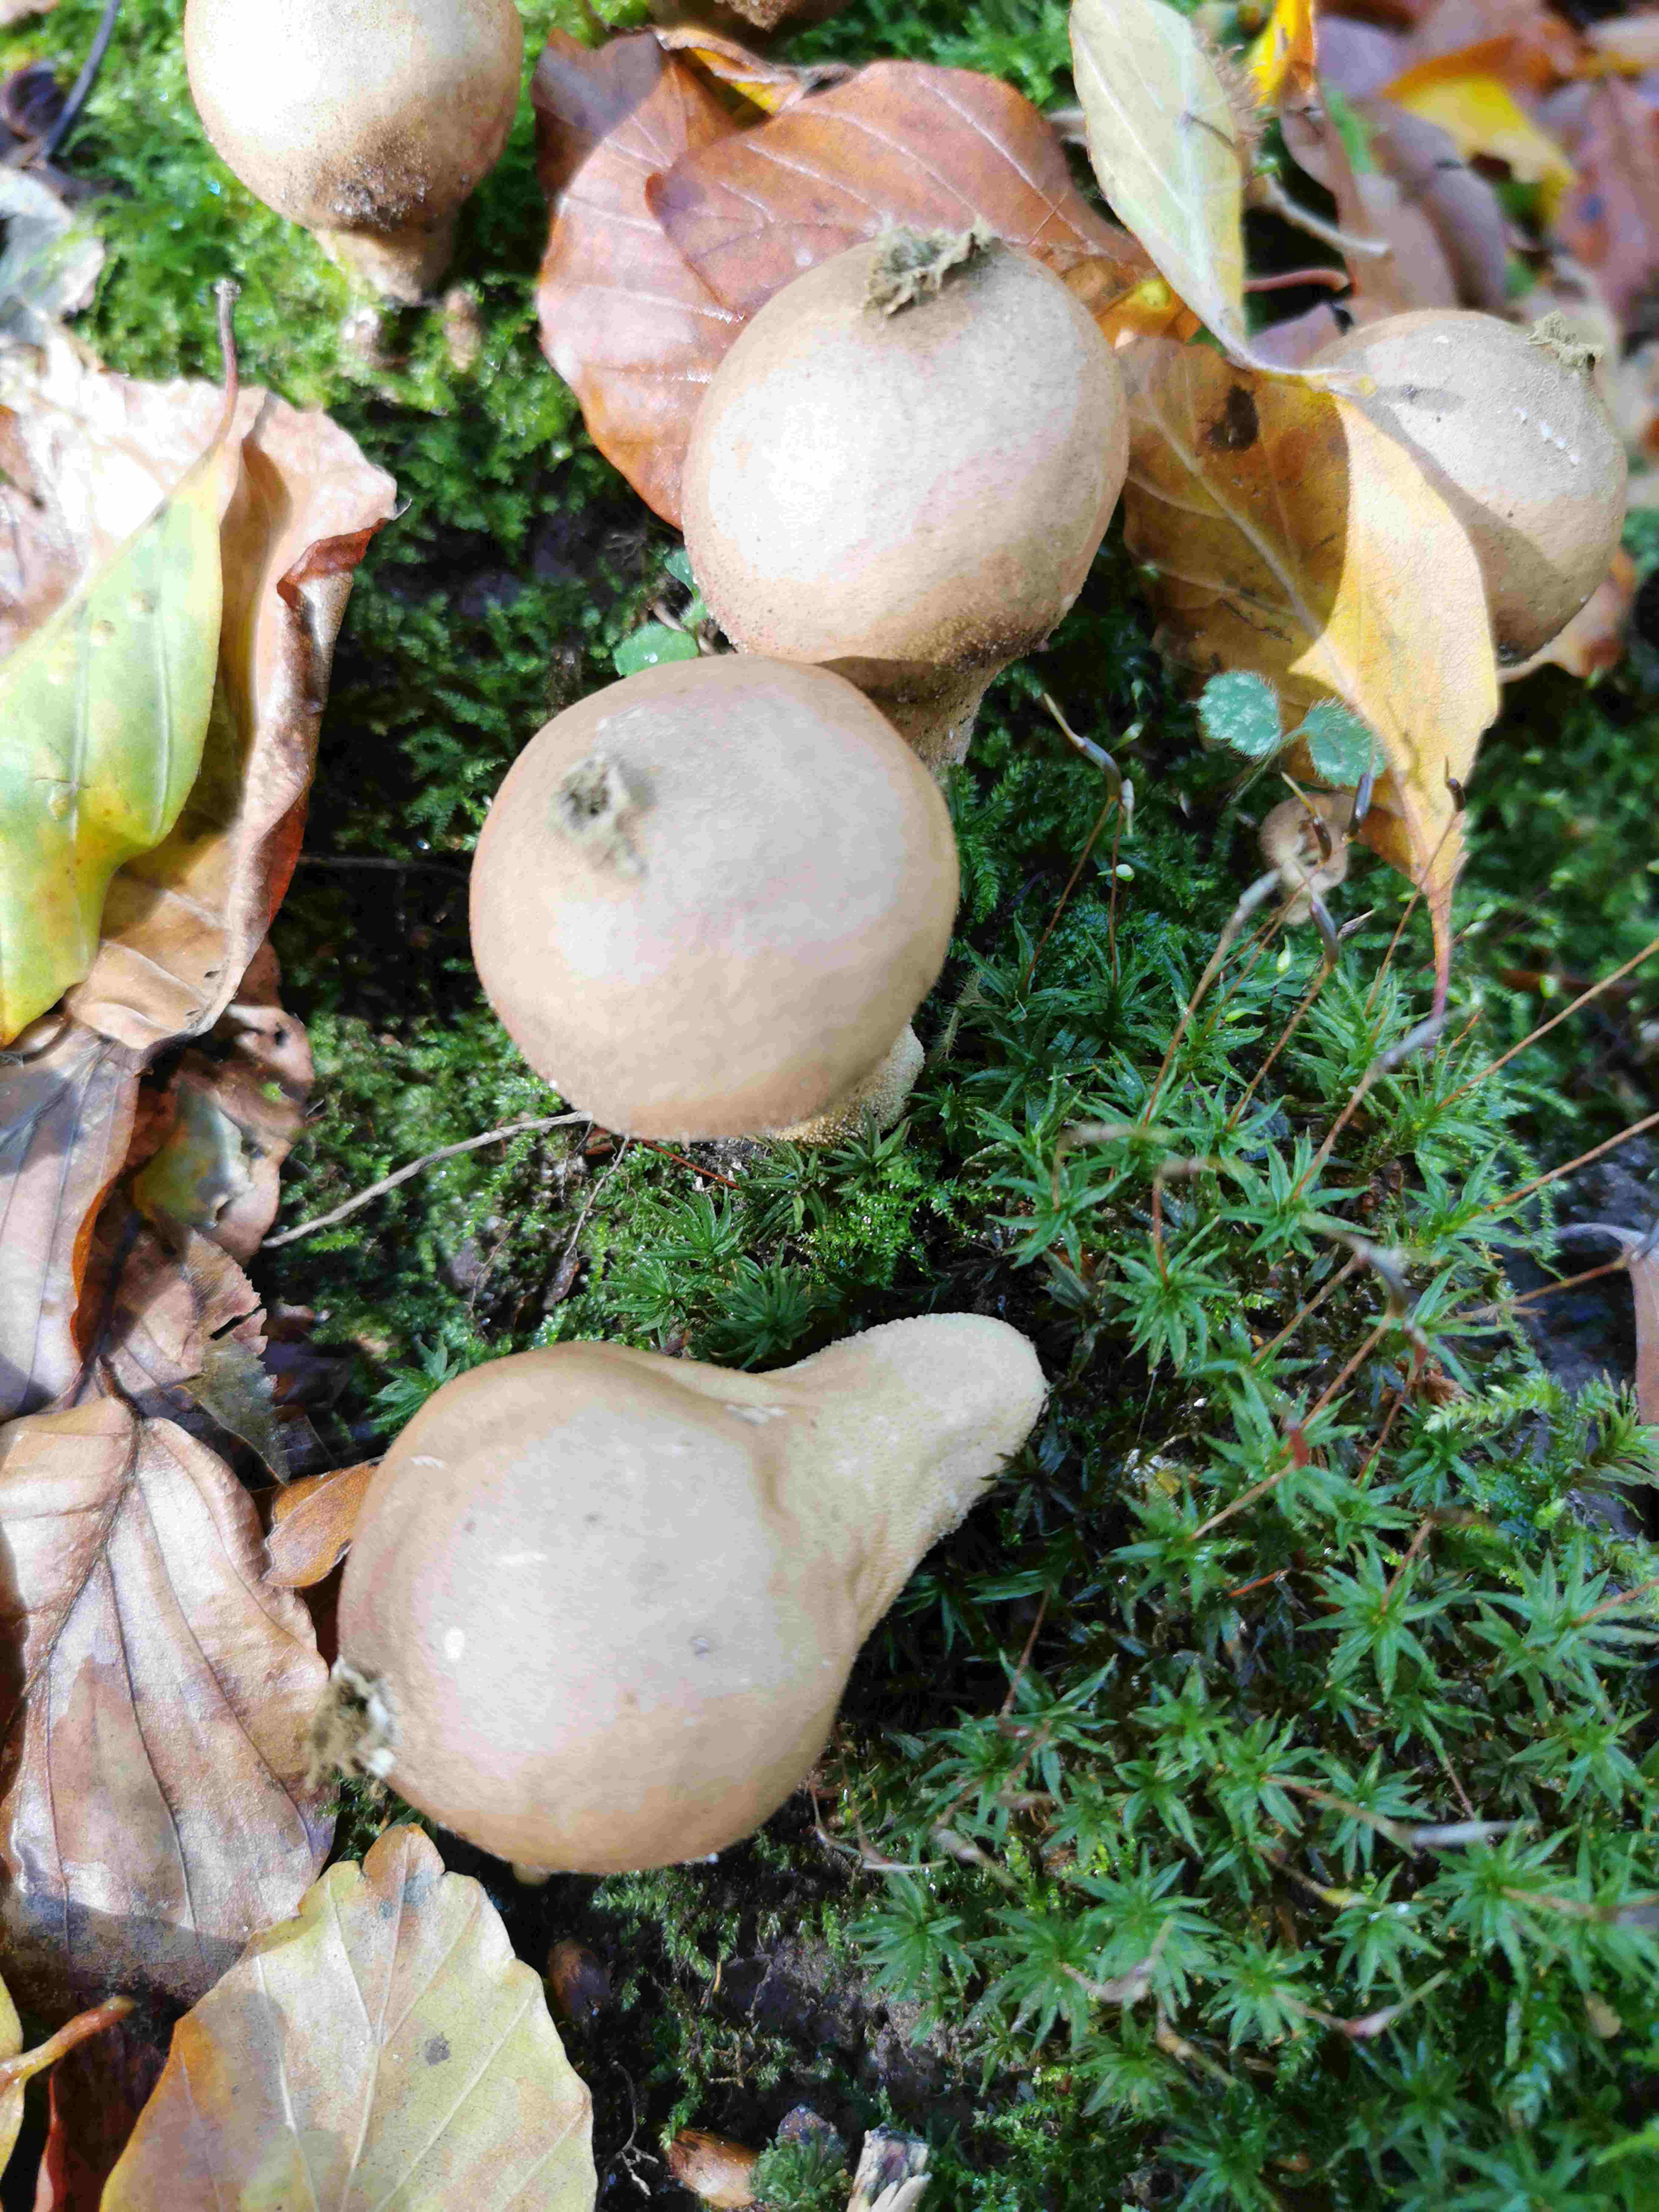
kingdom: Fungi
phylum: Basidiomycota
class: Agaricomycetes
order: Agaricales
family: Lycoperdaceae
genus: Apioperdon
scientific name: Apioperdon pyriforme
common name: pære-støvbold
